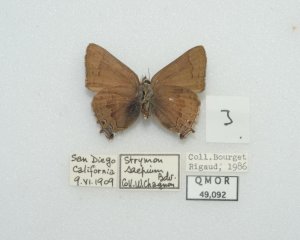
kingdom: Animalia
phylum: Arthropoda
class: Insecta
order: Lepidoptera
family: Lycaenidae
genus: Strymon
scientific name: Strymon saepium
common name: Hedgerow Hairstreak
